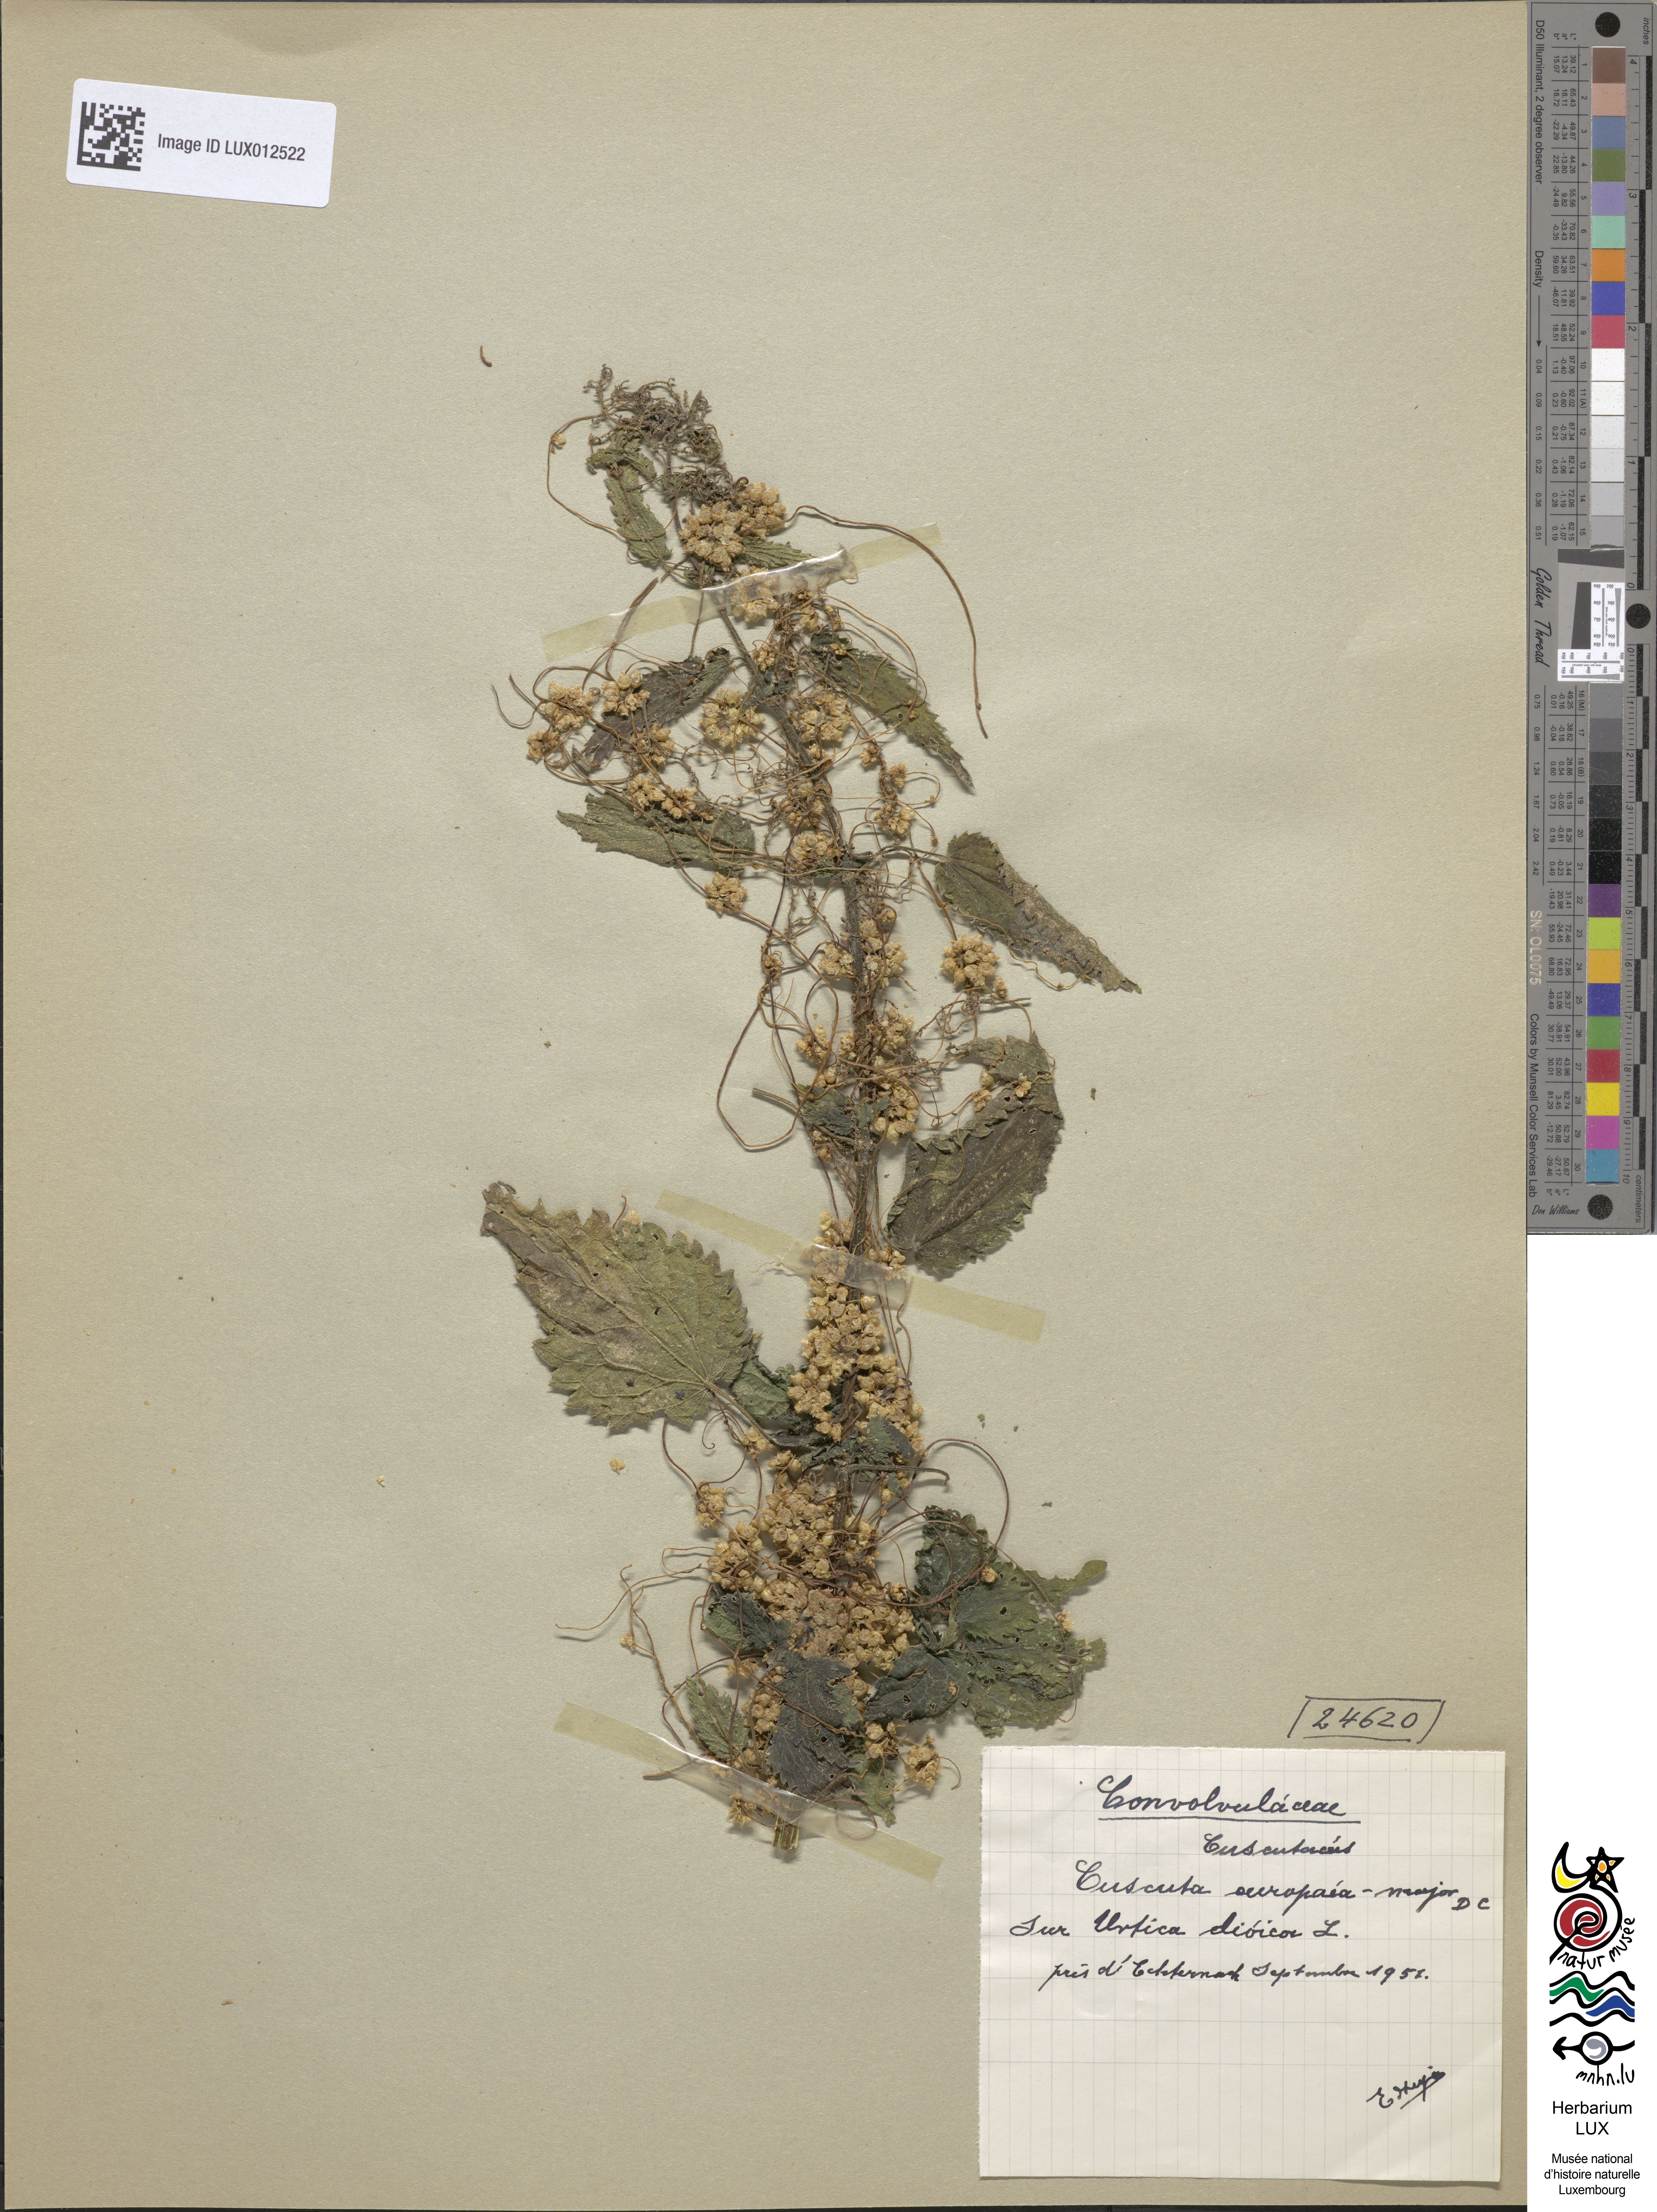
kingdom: Plantae
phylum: Tracheophyta
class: Magnoliopsida
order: Solanales
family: Convolvulaceae
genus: Cuscuta
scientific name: Cuscuta europaea
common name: Greater dodder
